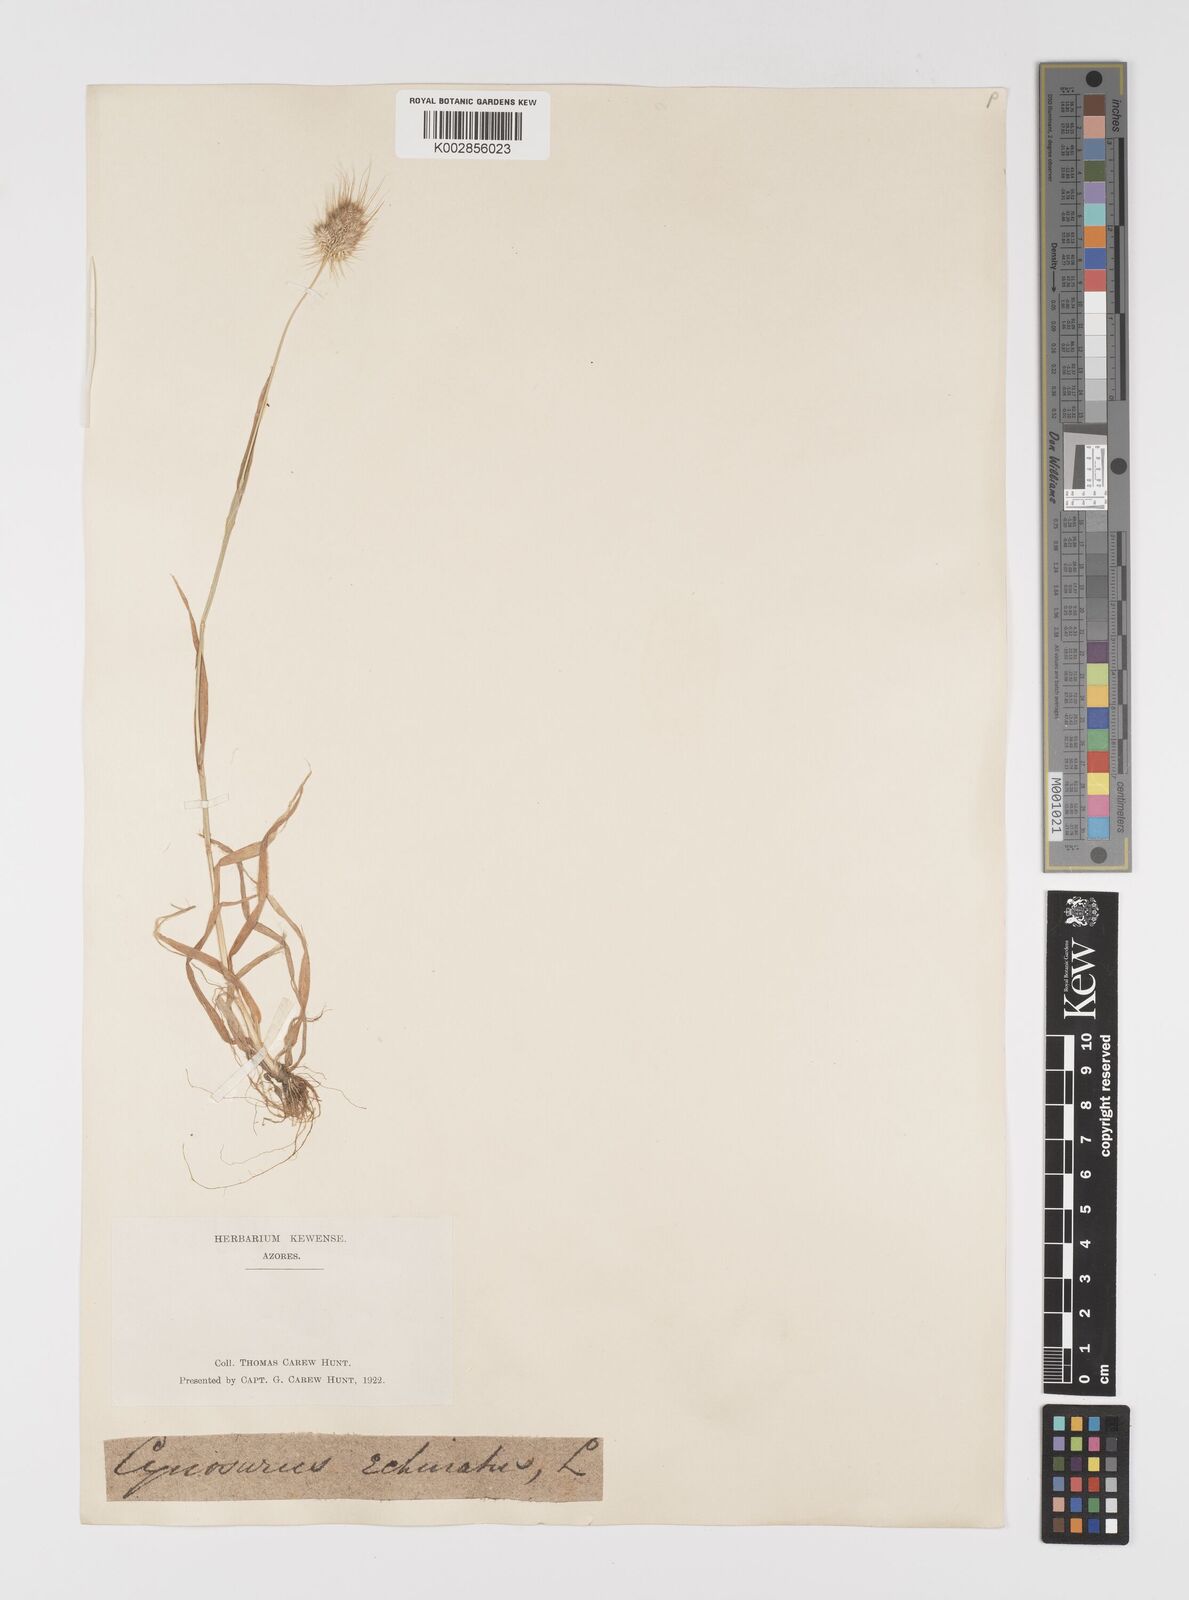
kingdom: Plantae
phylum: Tracheophyta
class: Liliopsida
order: Poales
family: Poaceae
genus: Cynosurus
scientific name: Cynosurus echinatus
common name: Rough dog's-tail
